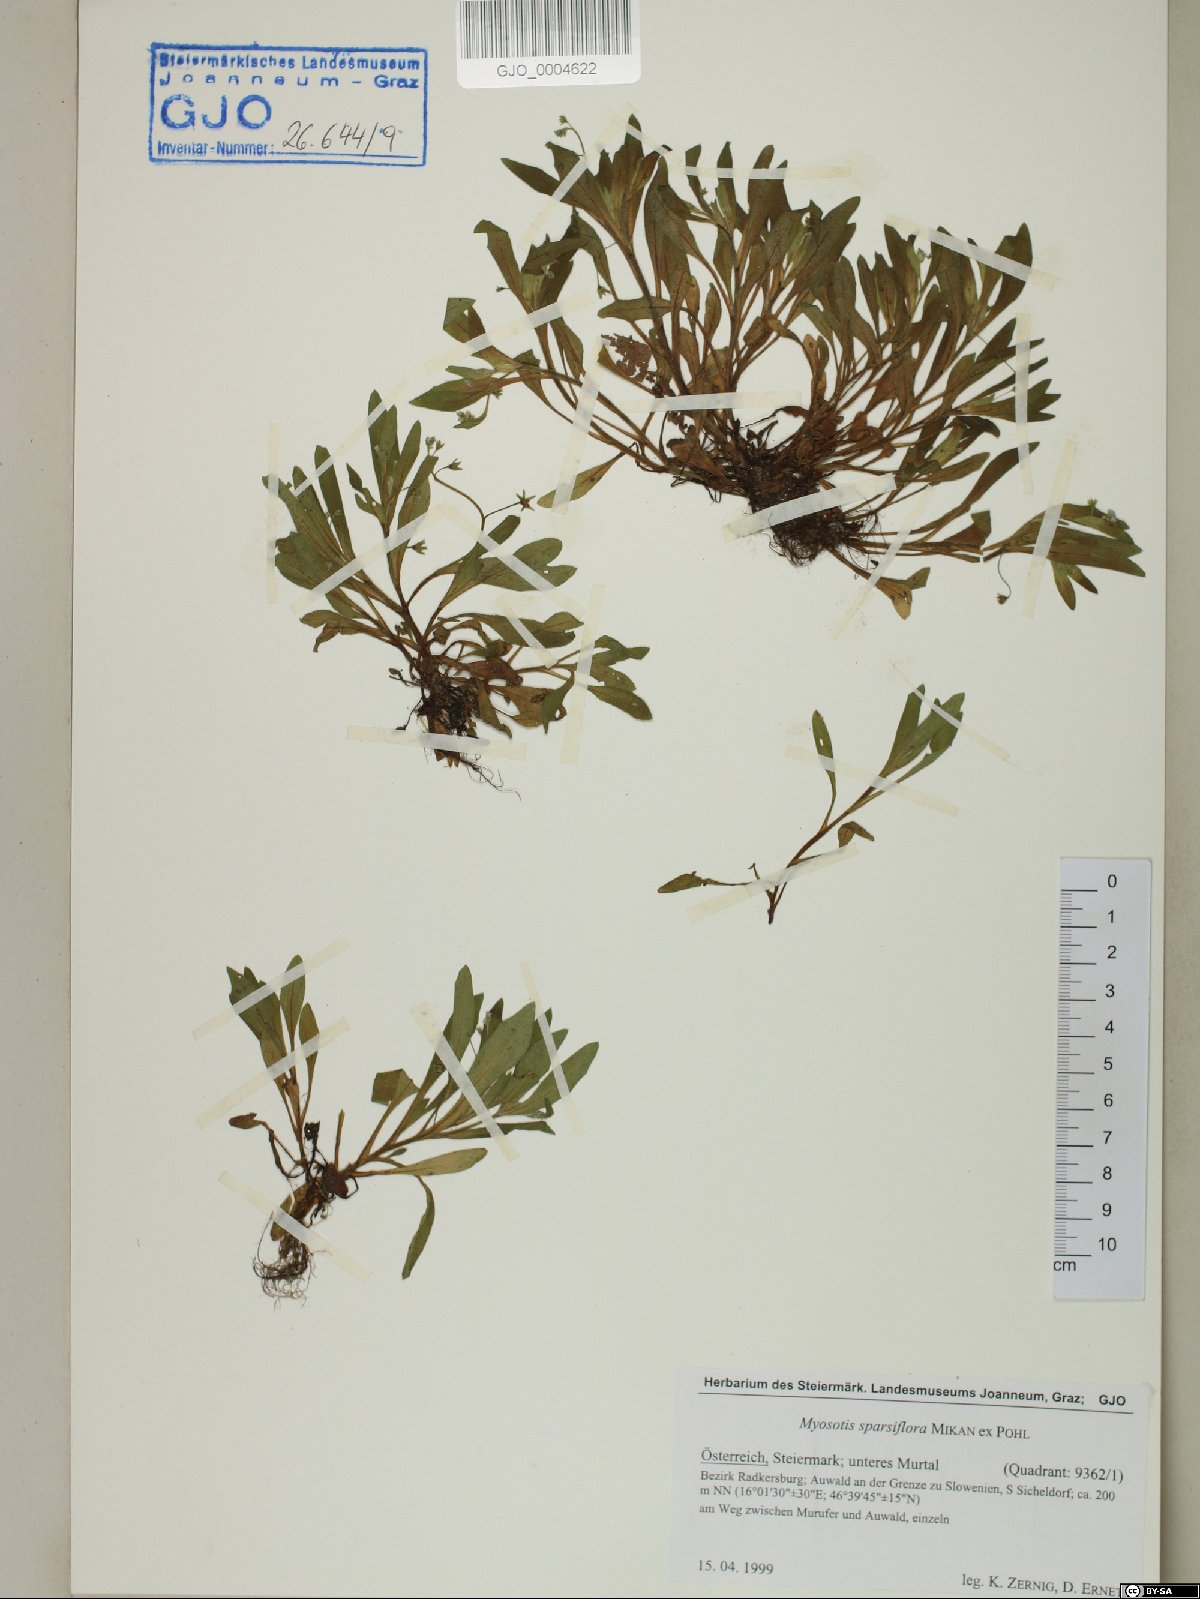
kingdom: Plantae
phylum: Tracheophyta
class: Magnoliopsida
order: Boraginales
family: Boraginaceae
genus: Myosotis
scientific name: Myosotis sparsiflora
